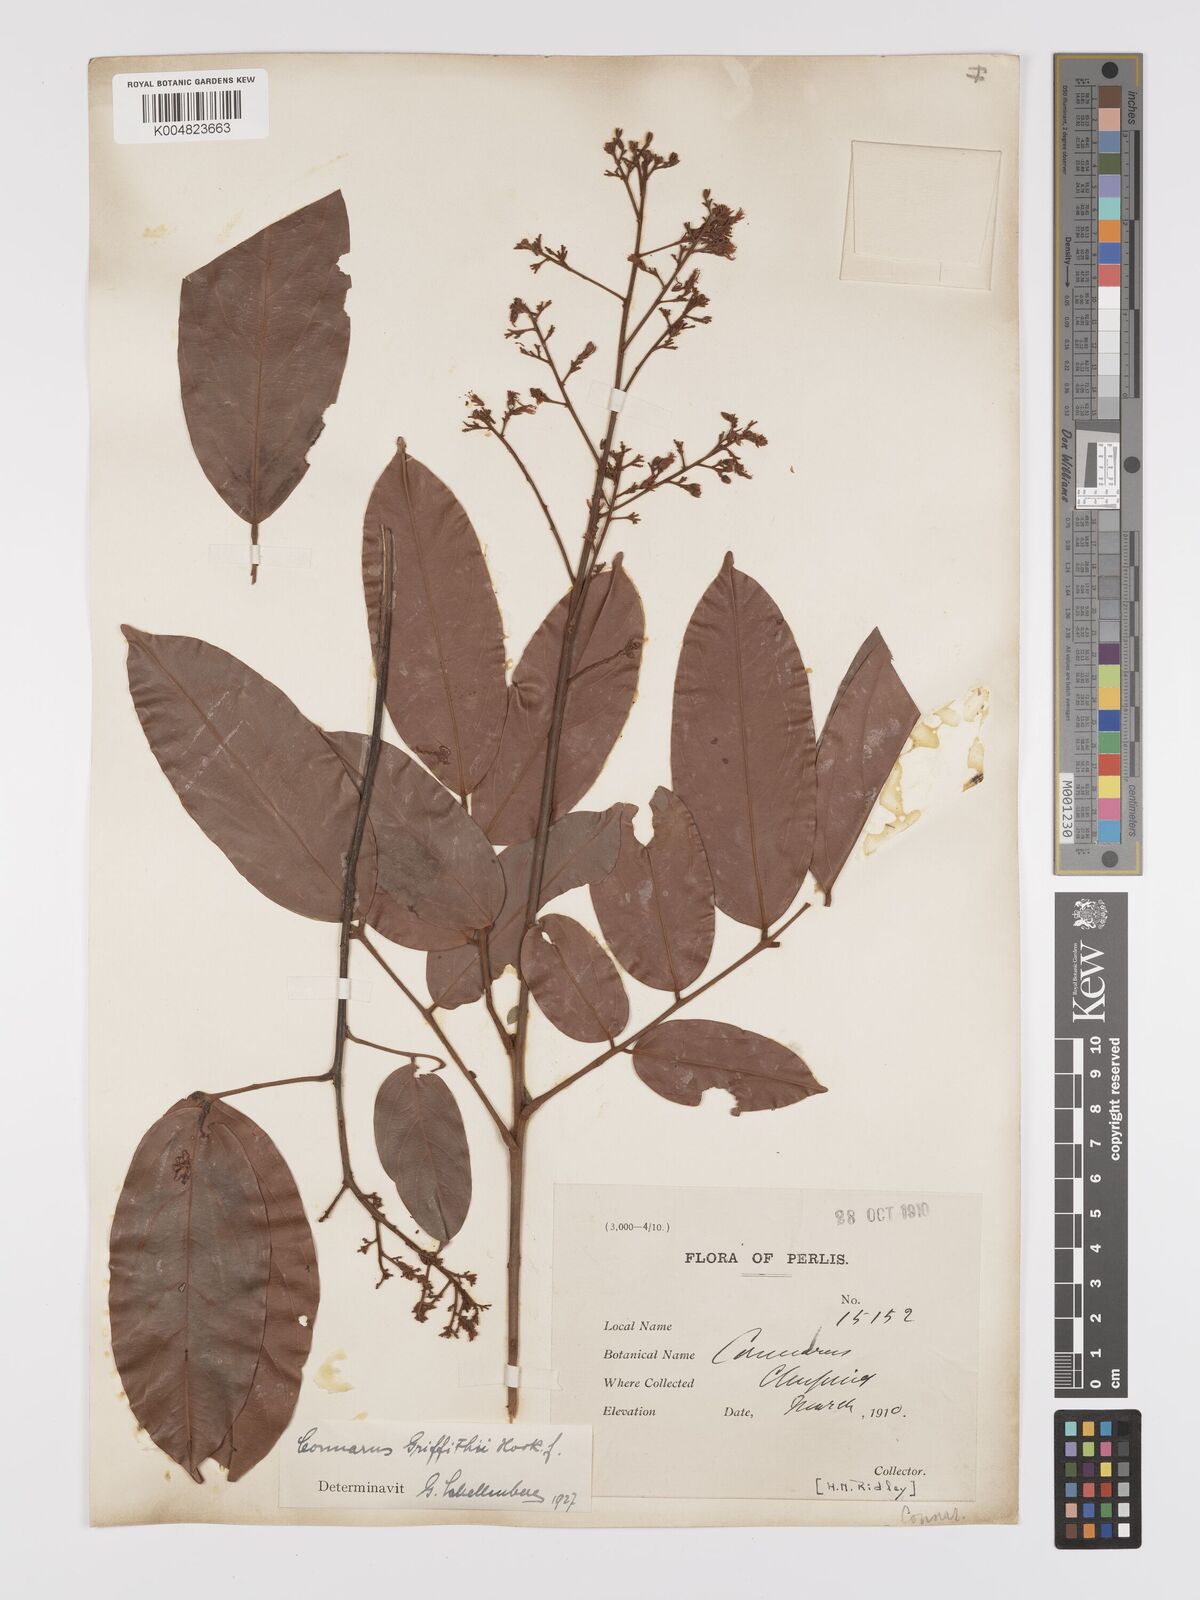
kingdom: Plantae
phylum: Tracheophyta
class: Magnoliopsida
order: Oxalidales
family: Connaraceae
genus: Connarus
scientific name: Connarus semidecandrus
